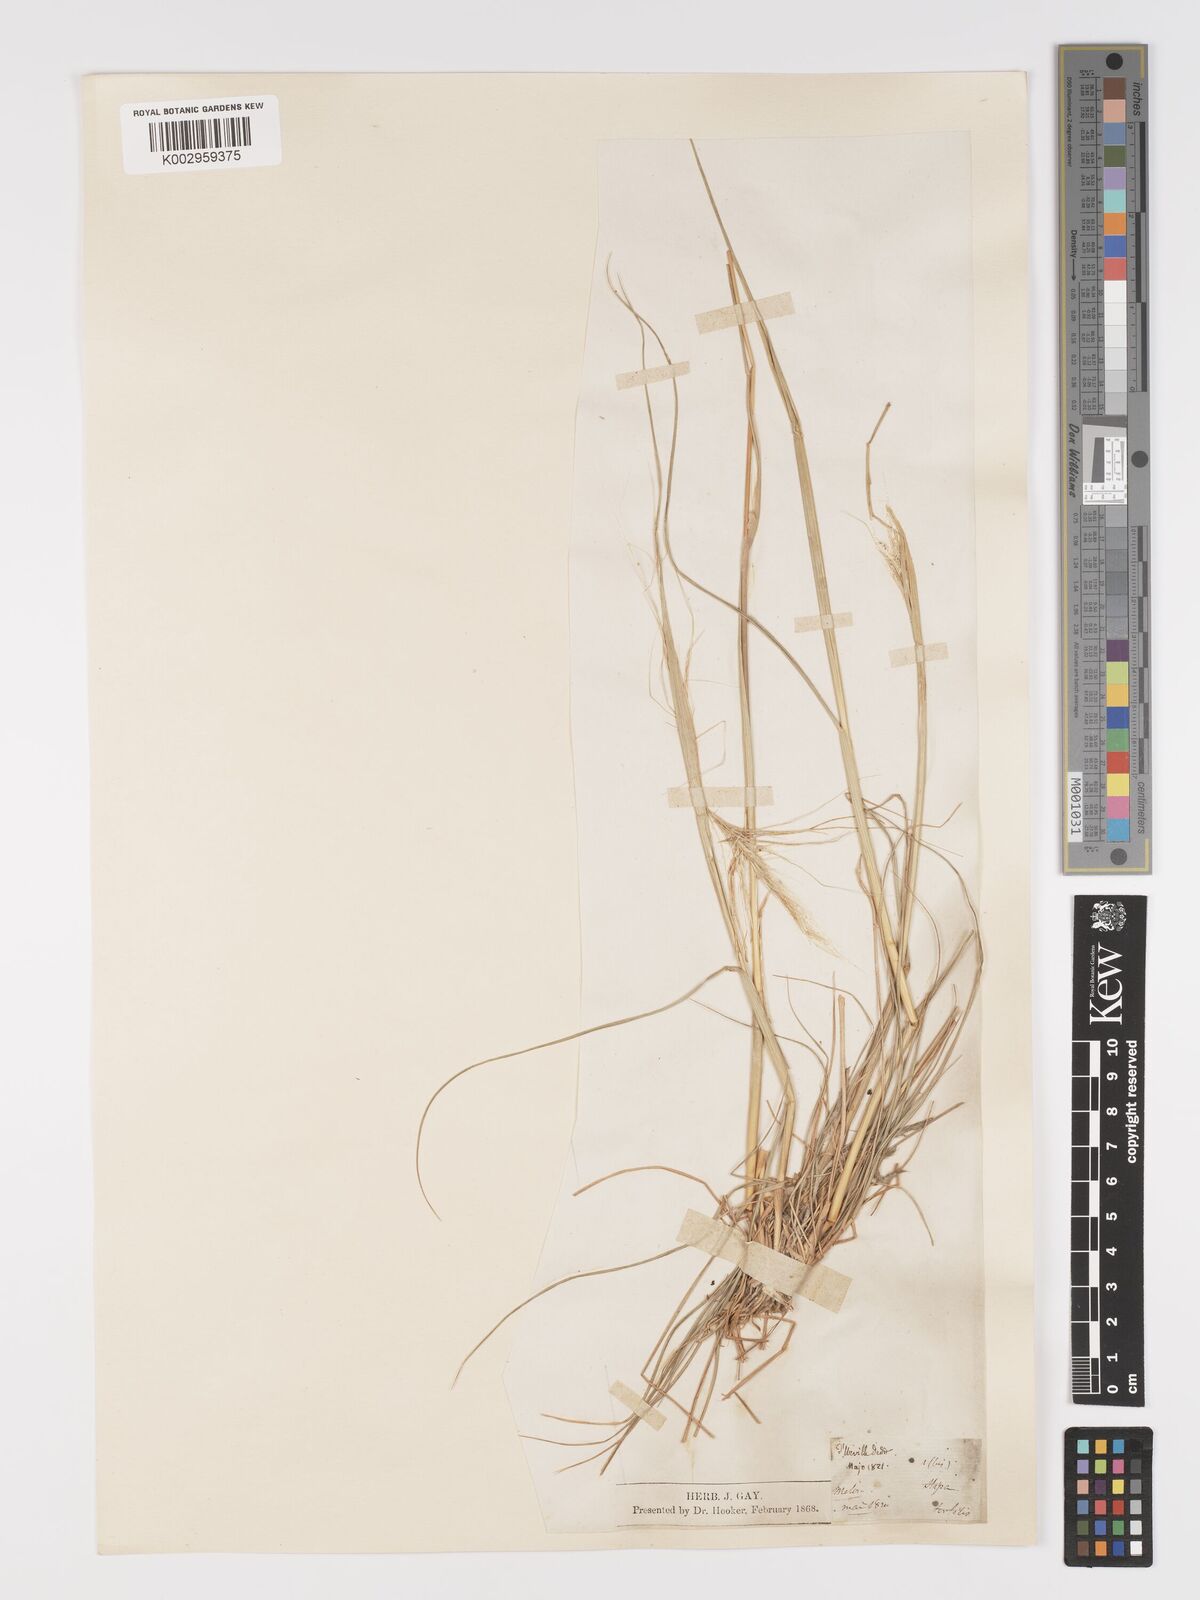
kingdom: Plantae
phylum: Tracheophyta
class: Liliopsida
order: Poales
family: Poaceae
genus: Stipellula
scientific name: Stipellula capensis
